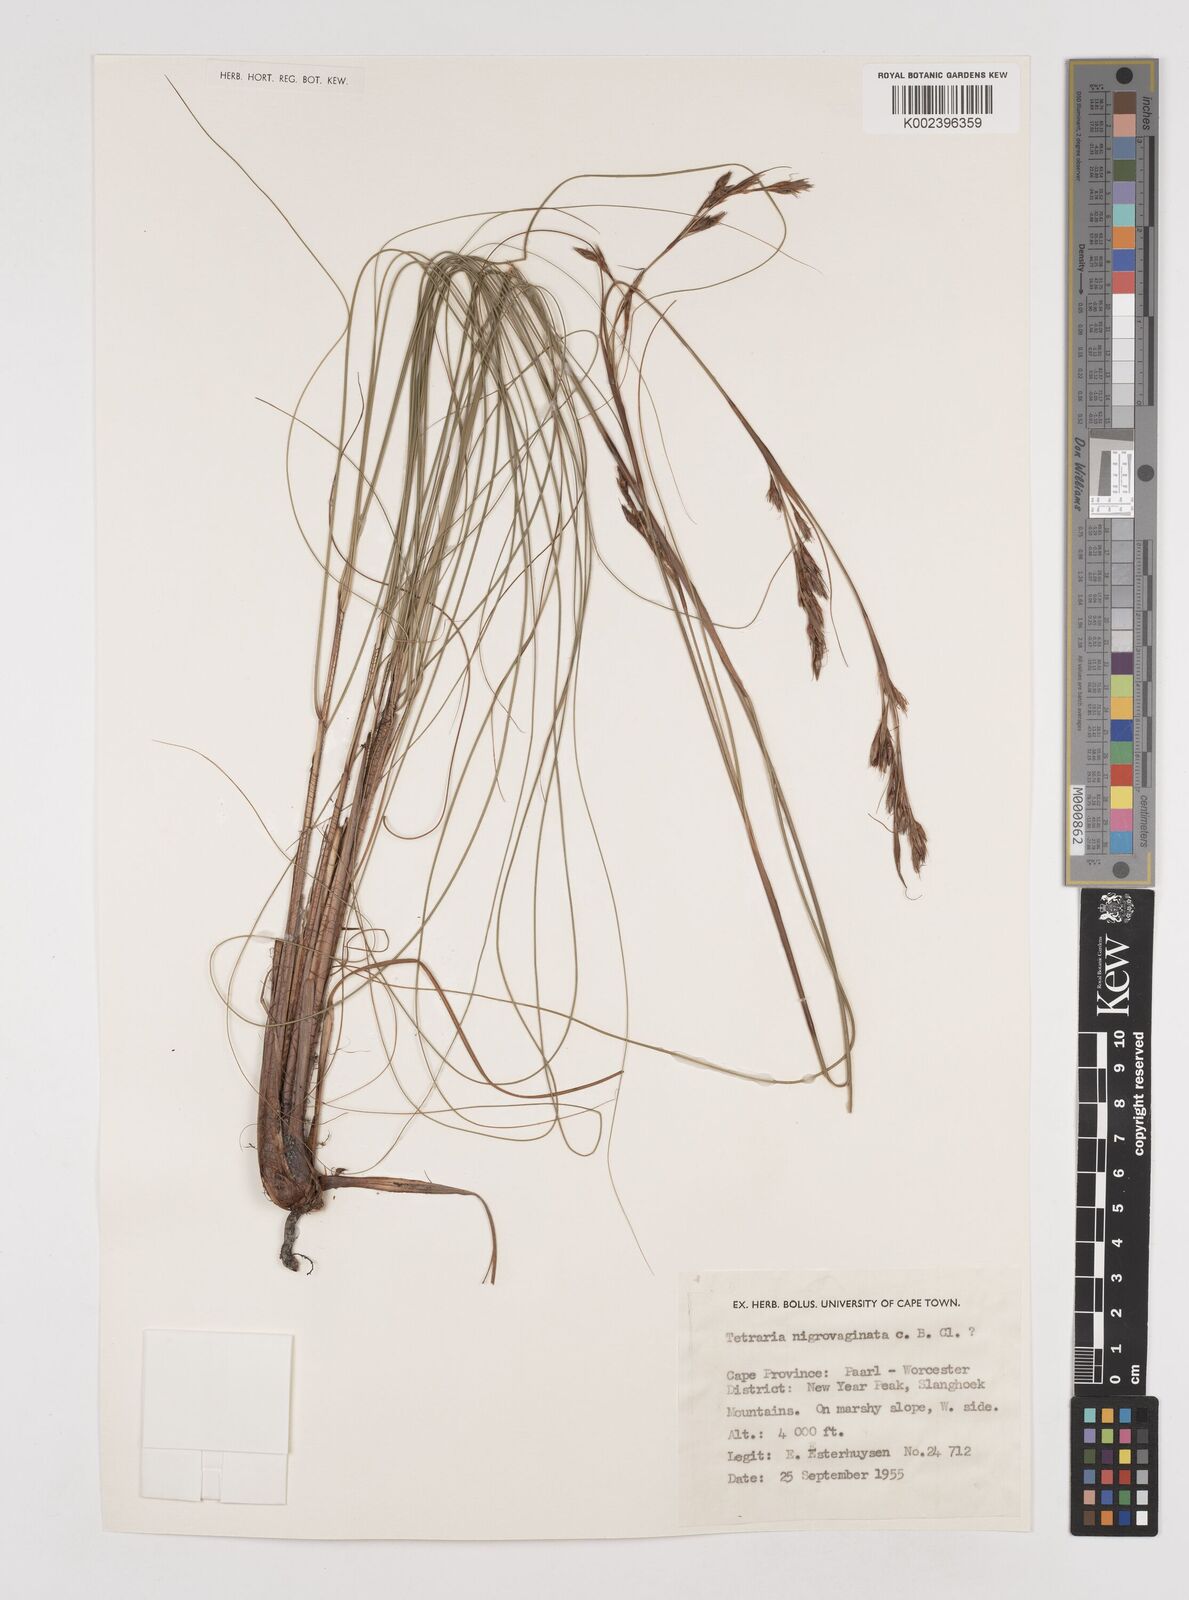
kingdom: Plantae
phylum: Tracheophyta
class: Liliopsida
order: Poales
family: Cyperaceae
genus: Tetraria
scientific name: Tetraria
